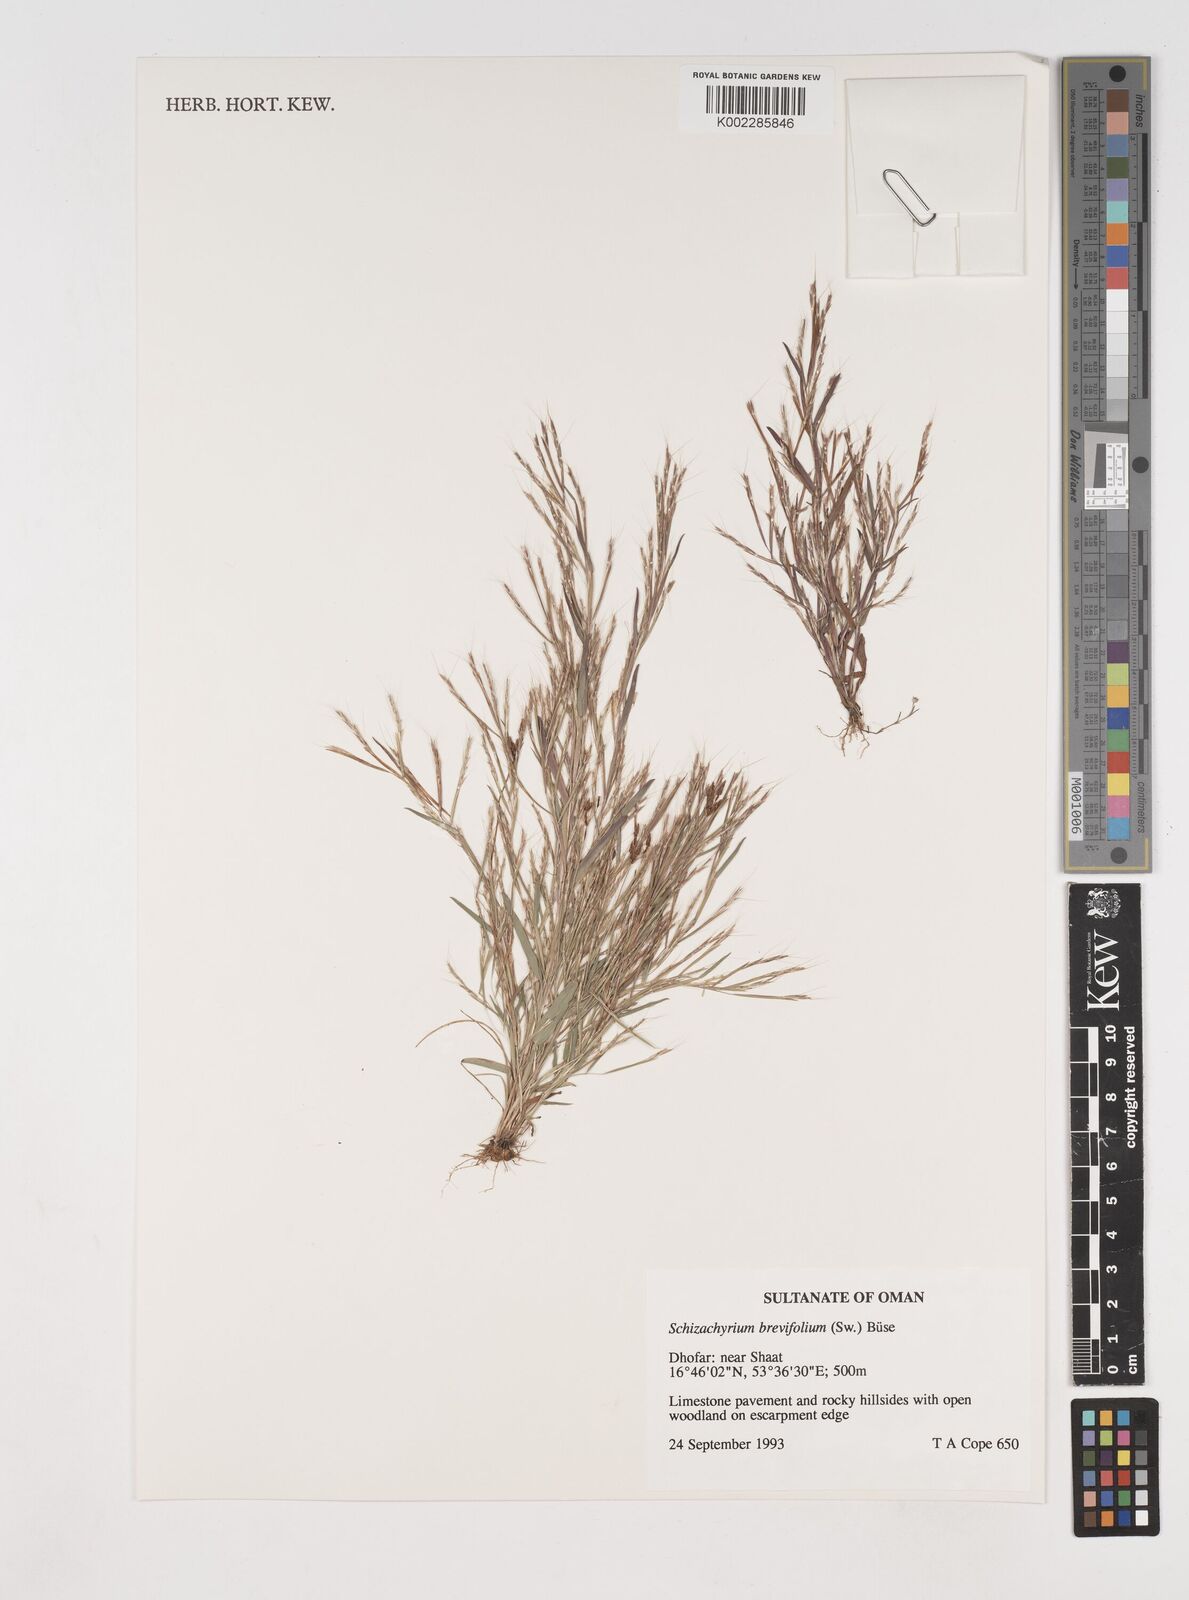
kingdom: Plantae
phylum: Tracheophyta
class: Liliopsida
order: Poales
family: Poaceae
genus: Schizachyrium
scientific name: Schizachyrium brevifolium
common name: Serillo dulce
